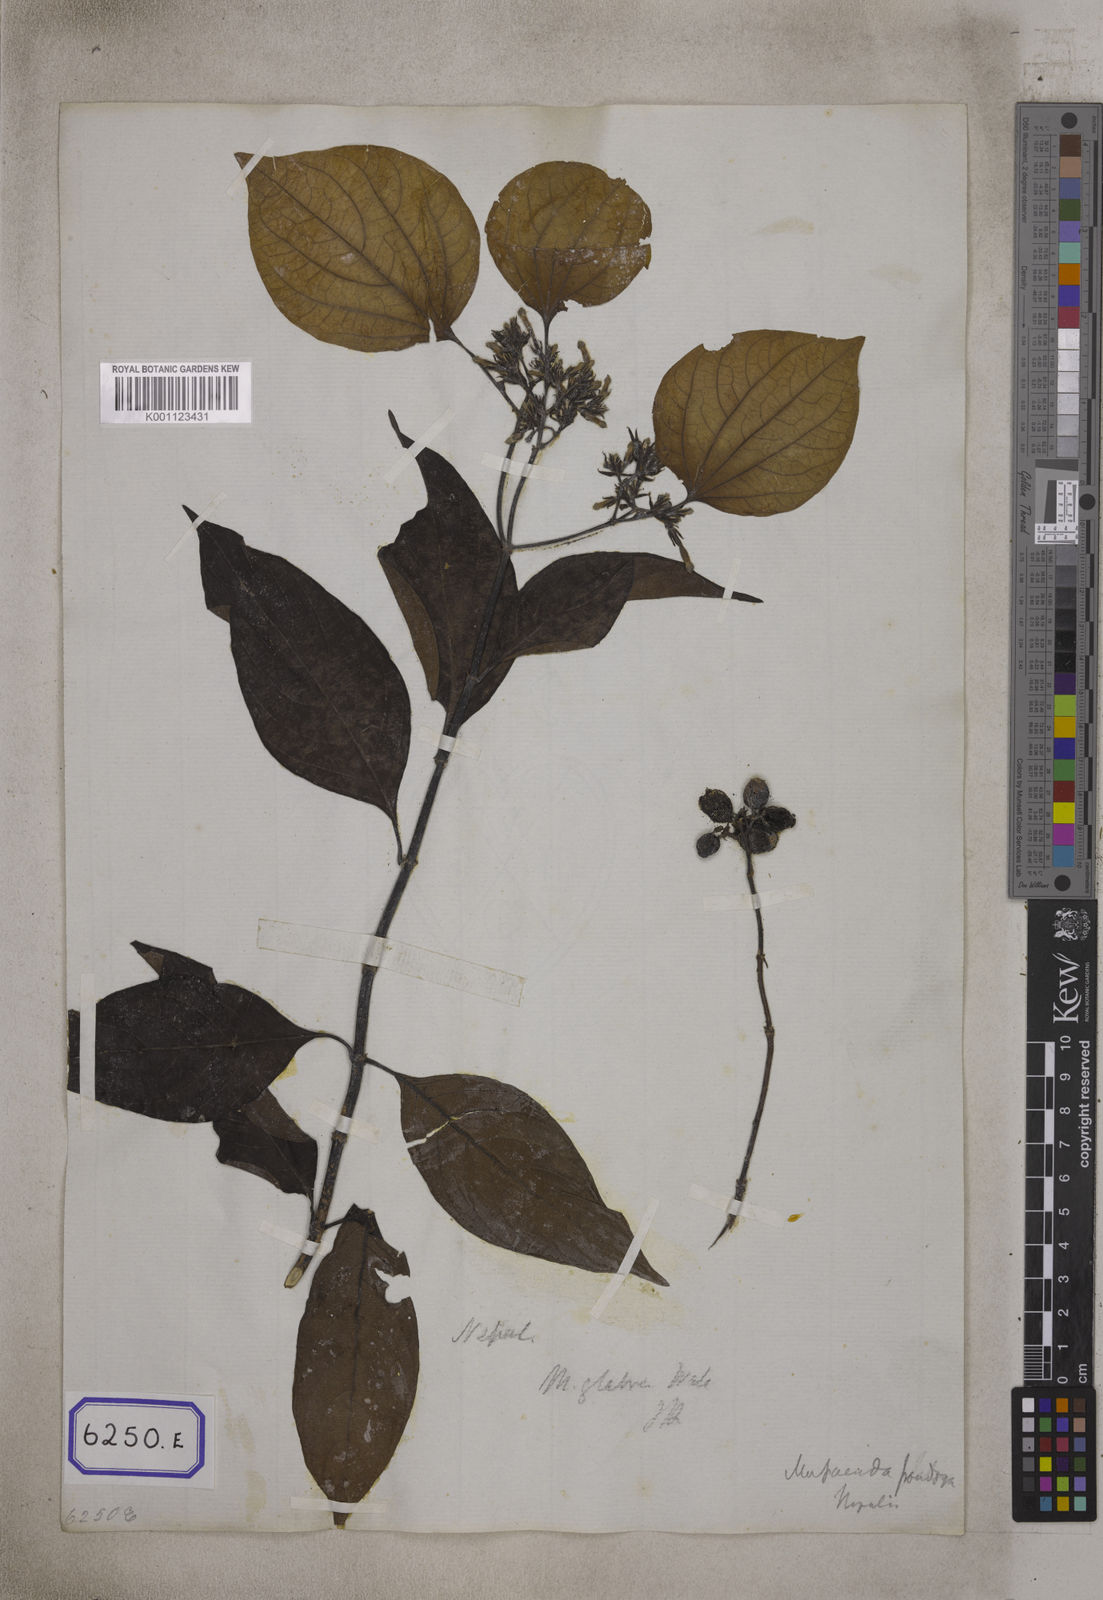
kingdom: Plantae
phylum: Tracheophyta
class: Magnoliopsida
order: Gentianales
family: Rubiaceae
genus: Mussaenda
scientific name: Mussaenda
